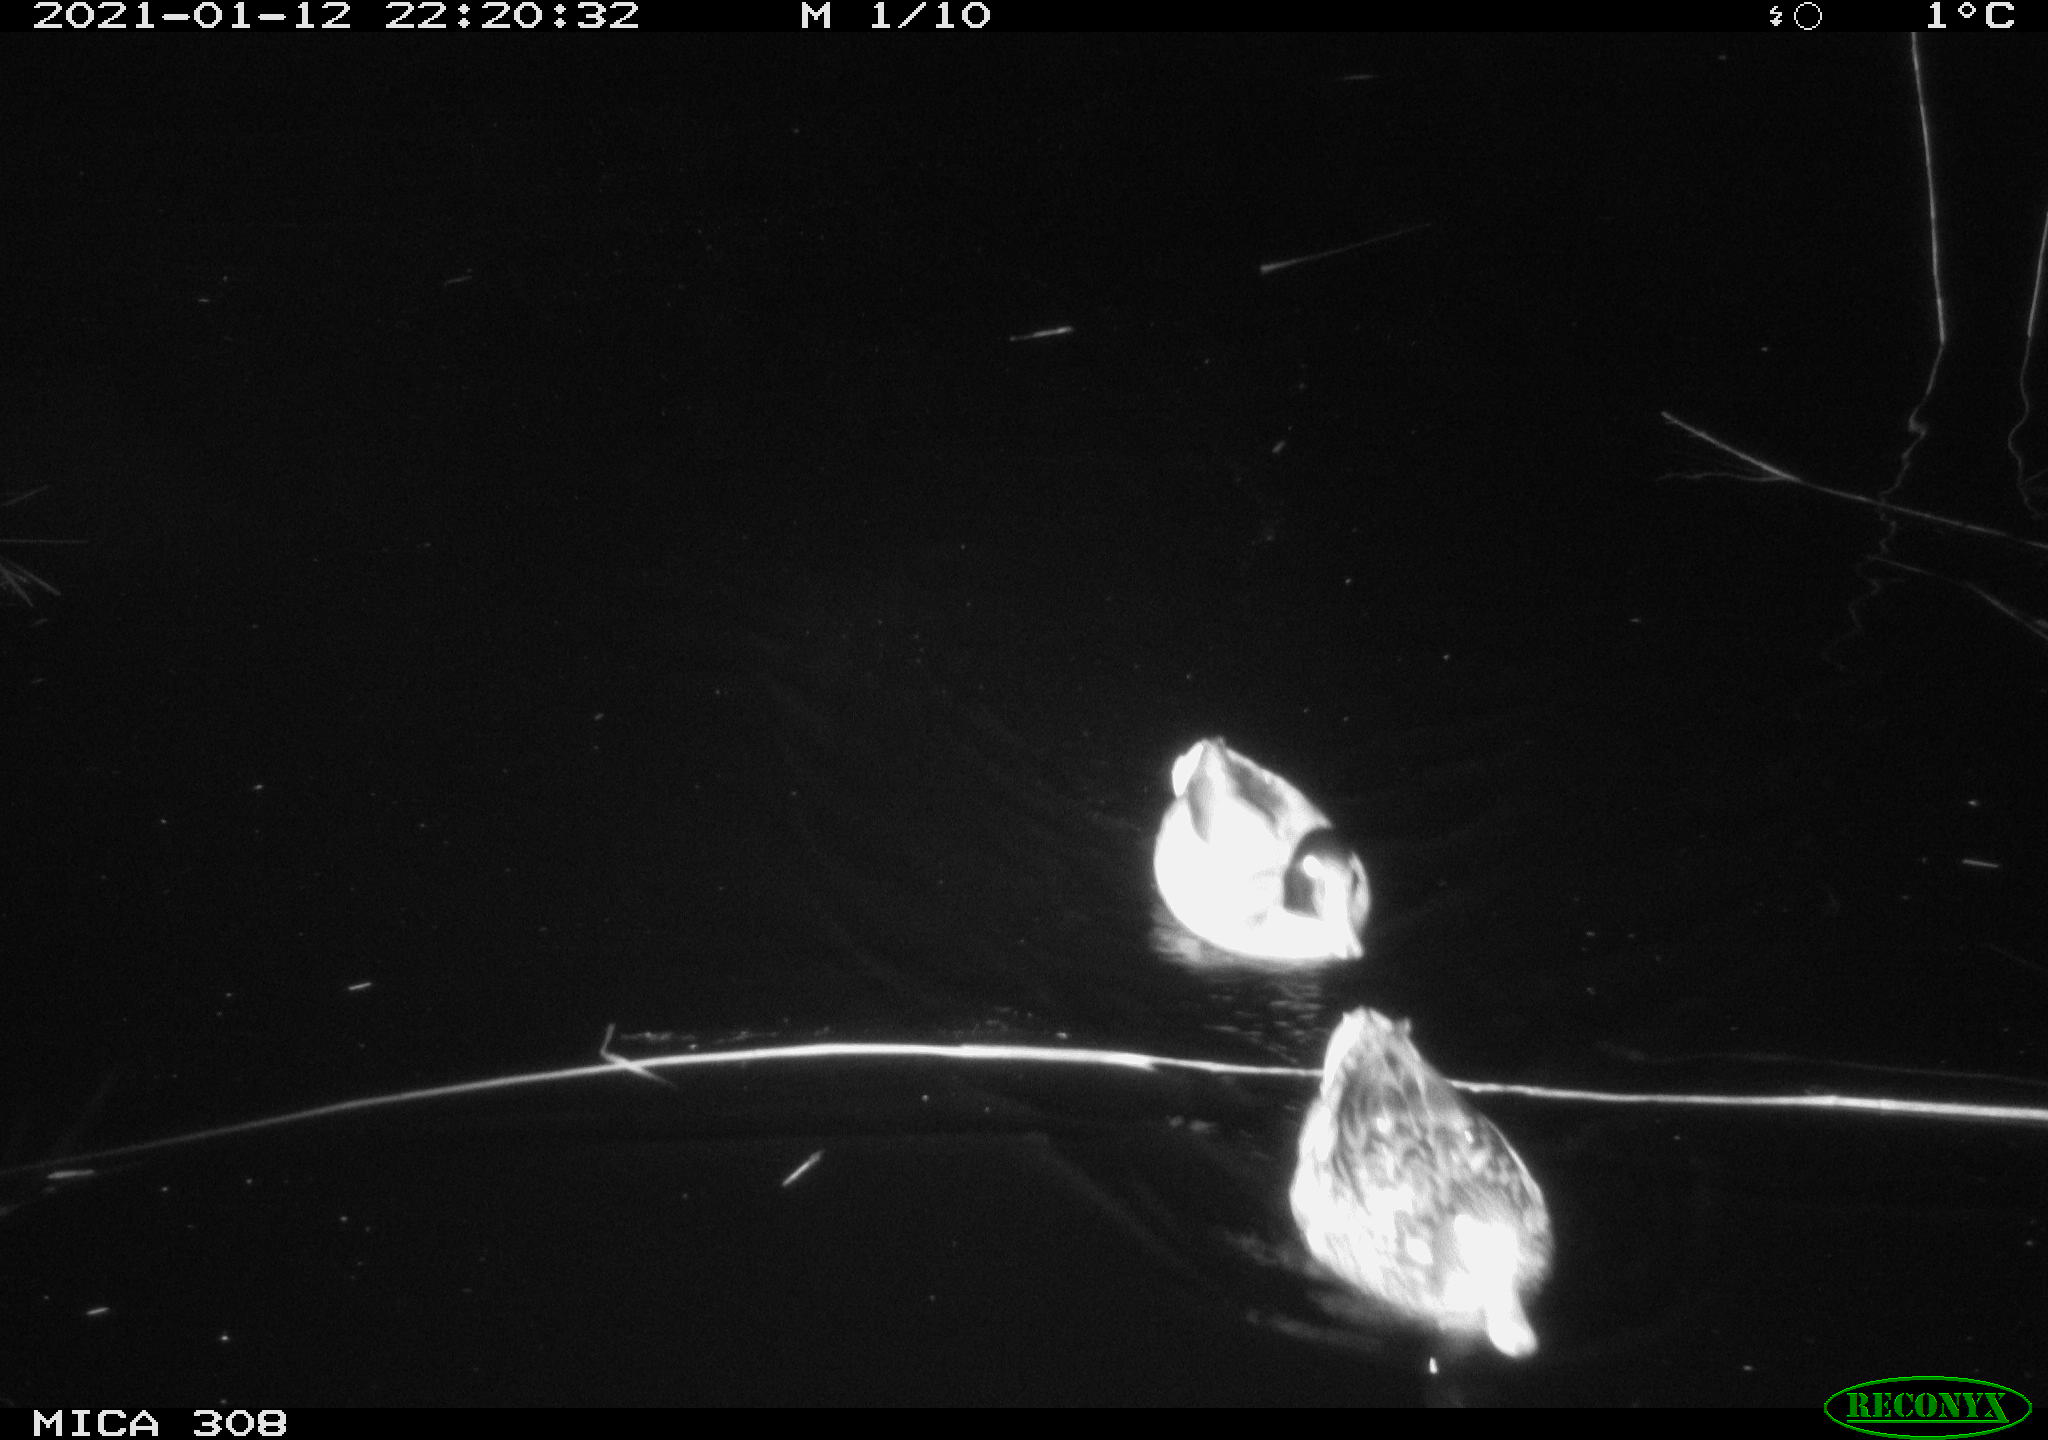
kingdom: Animalia
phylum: Chordata
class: Aves
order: Anseriformes
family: Anatidae
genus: Anas
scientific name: Anas platyrhynchos
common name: Mallard
